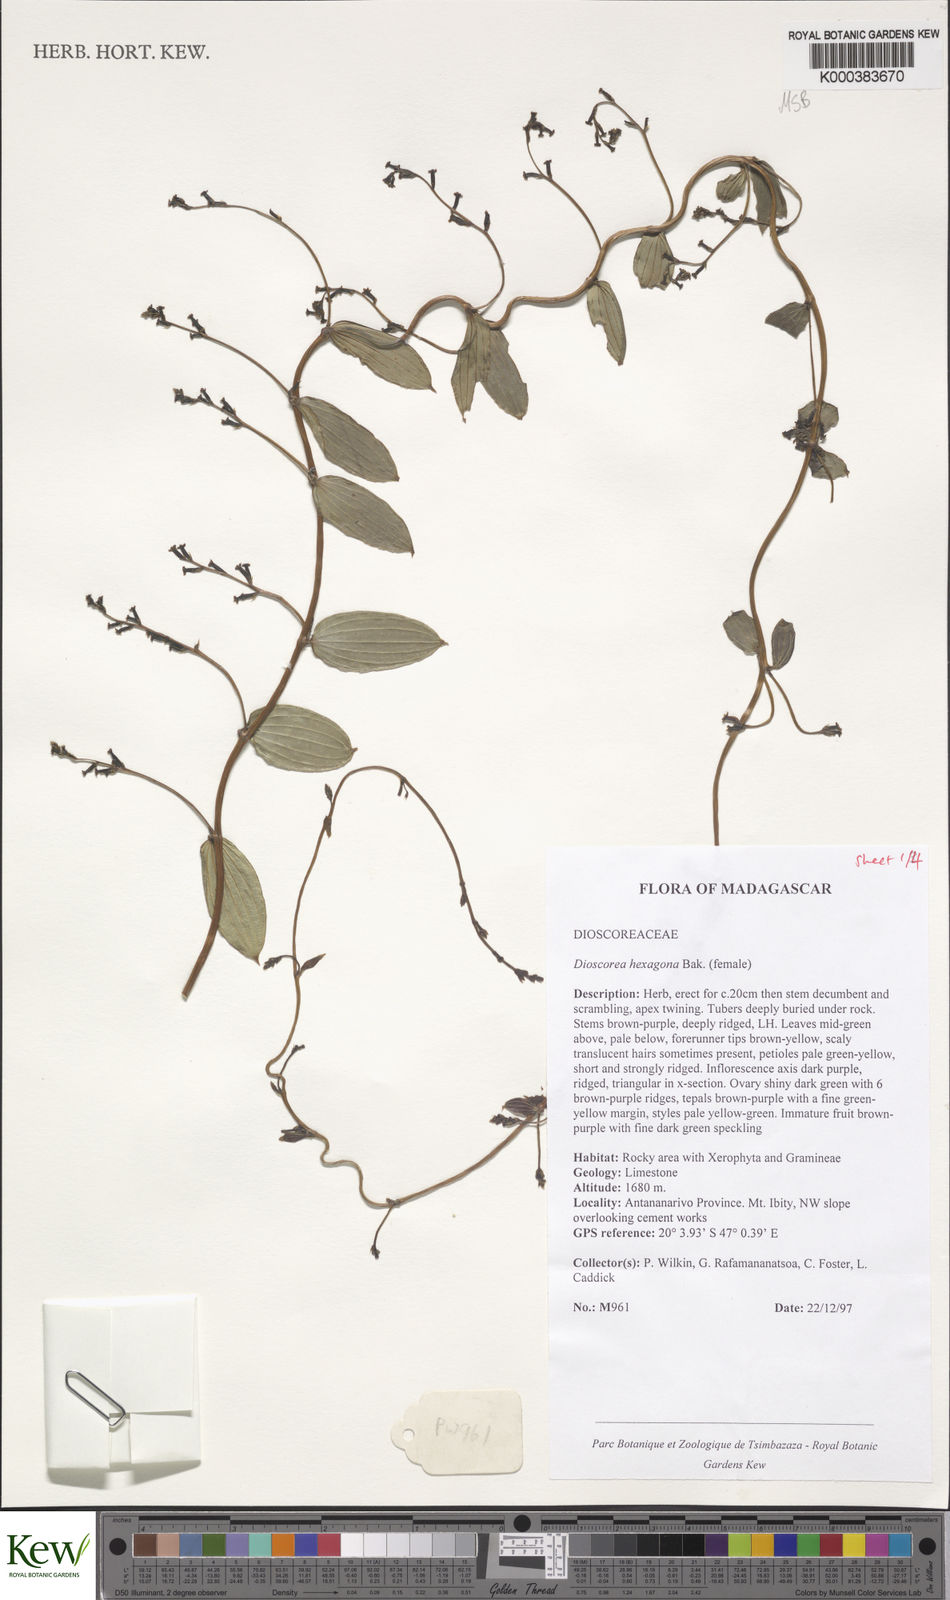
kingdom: Plantae
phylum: Tracheophyta
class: Liliopsida
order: Dioscoreales
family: Dioscoreaceae
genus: Dioscorea
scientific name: Dioscorea hexagona
